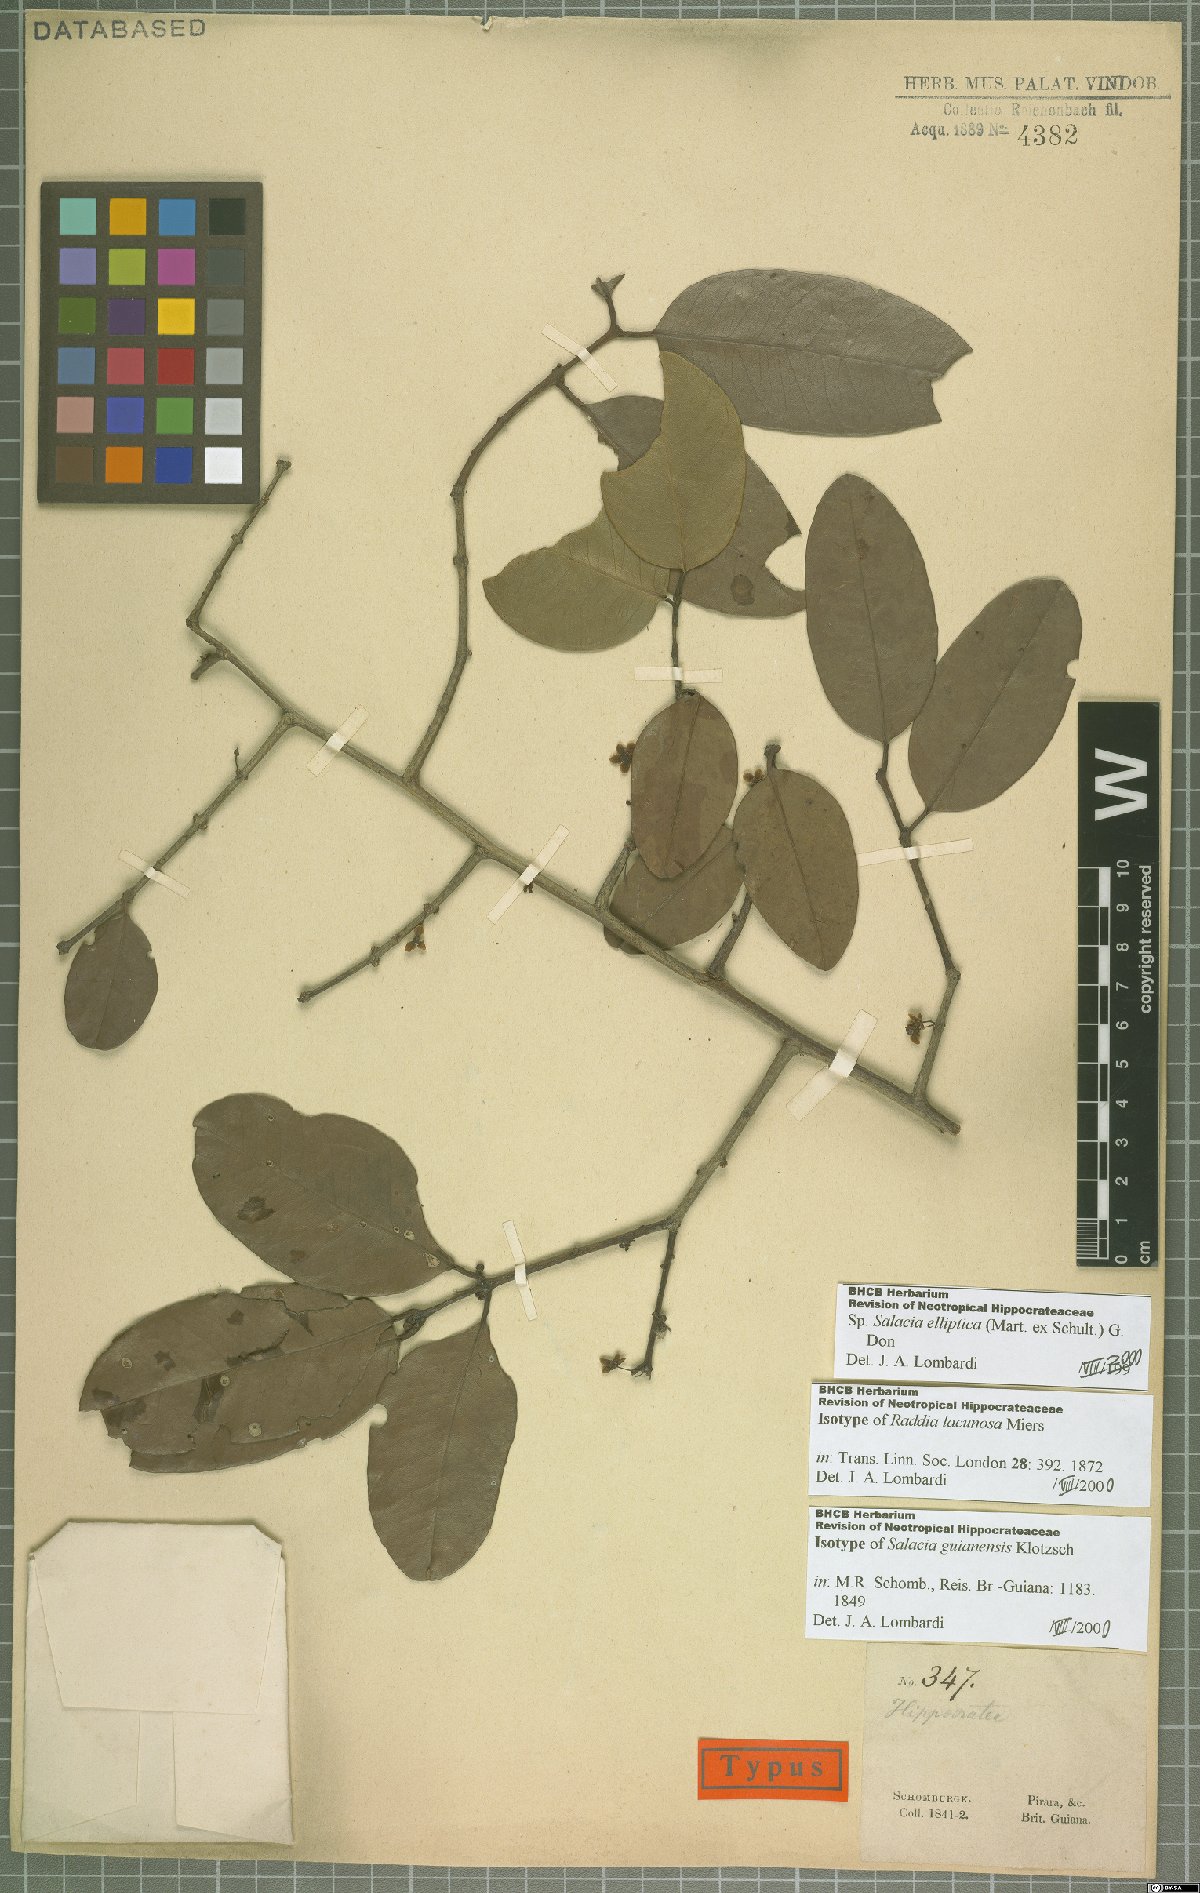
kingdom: Plantae
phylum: Tracheophyta
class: Magnoliopsida
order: Celastrales
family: Celastraceae
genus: Salacia
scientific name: Salacia elliptica
